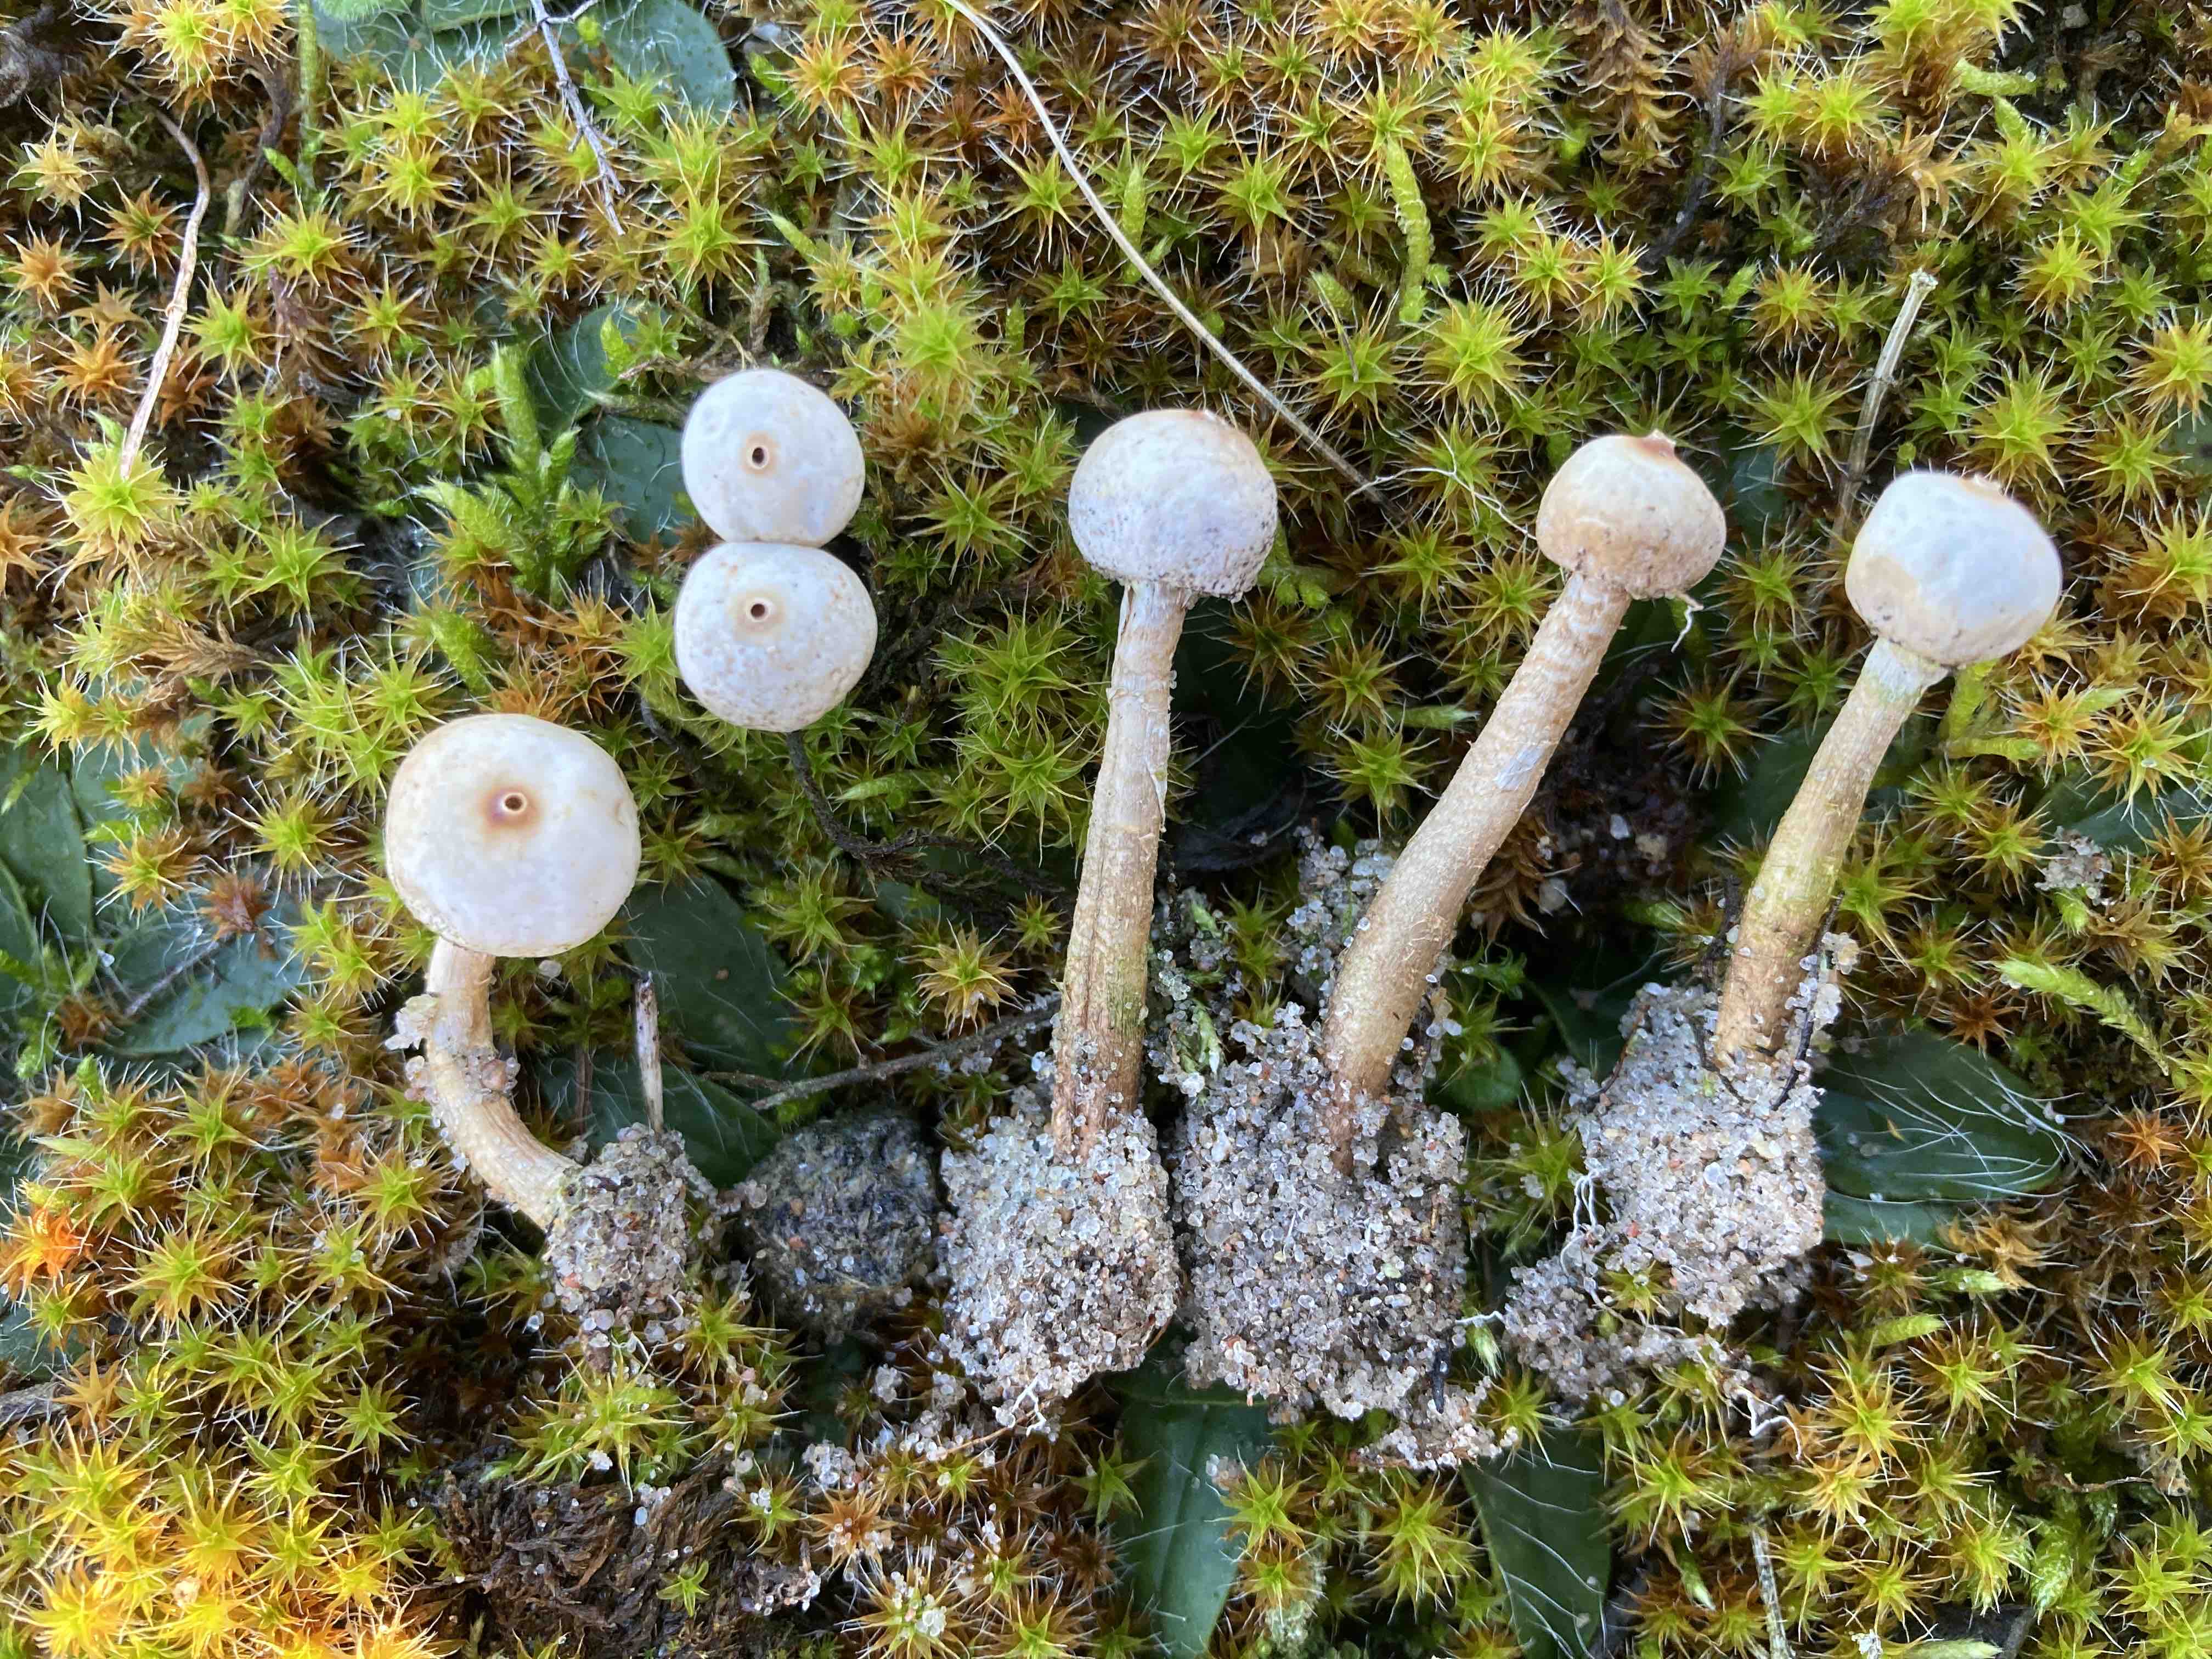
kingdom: Fungi
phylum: Basidiomycota
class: Agaricomycetes
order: Agaricales
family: Agaricaceae
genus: Tulostoma
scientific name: Tulostoma brumale
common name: vinter-stilkbovist
